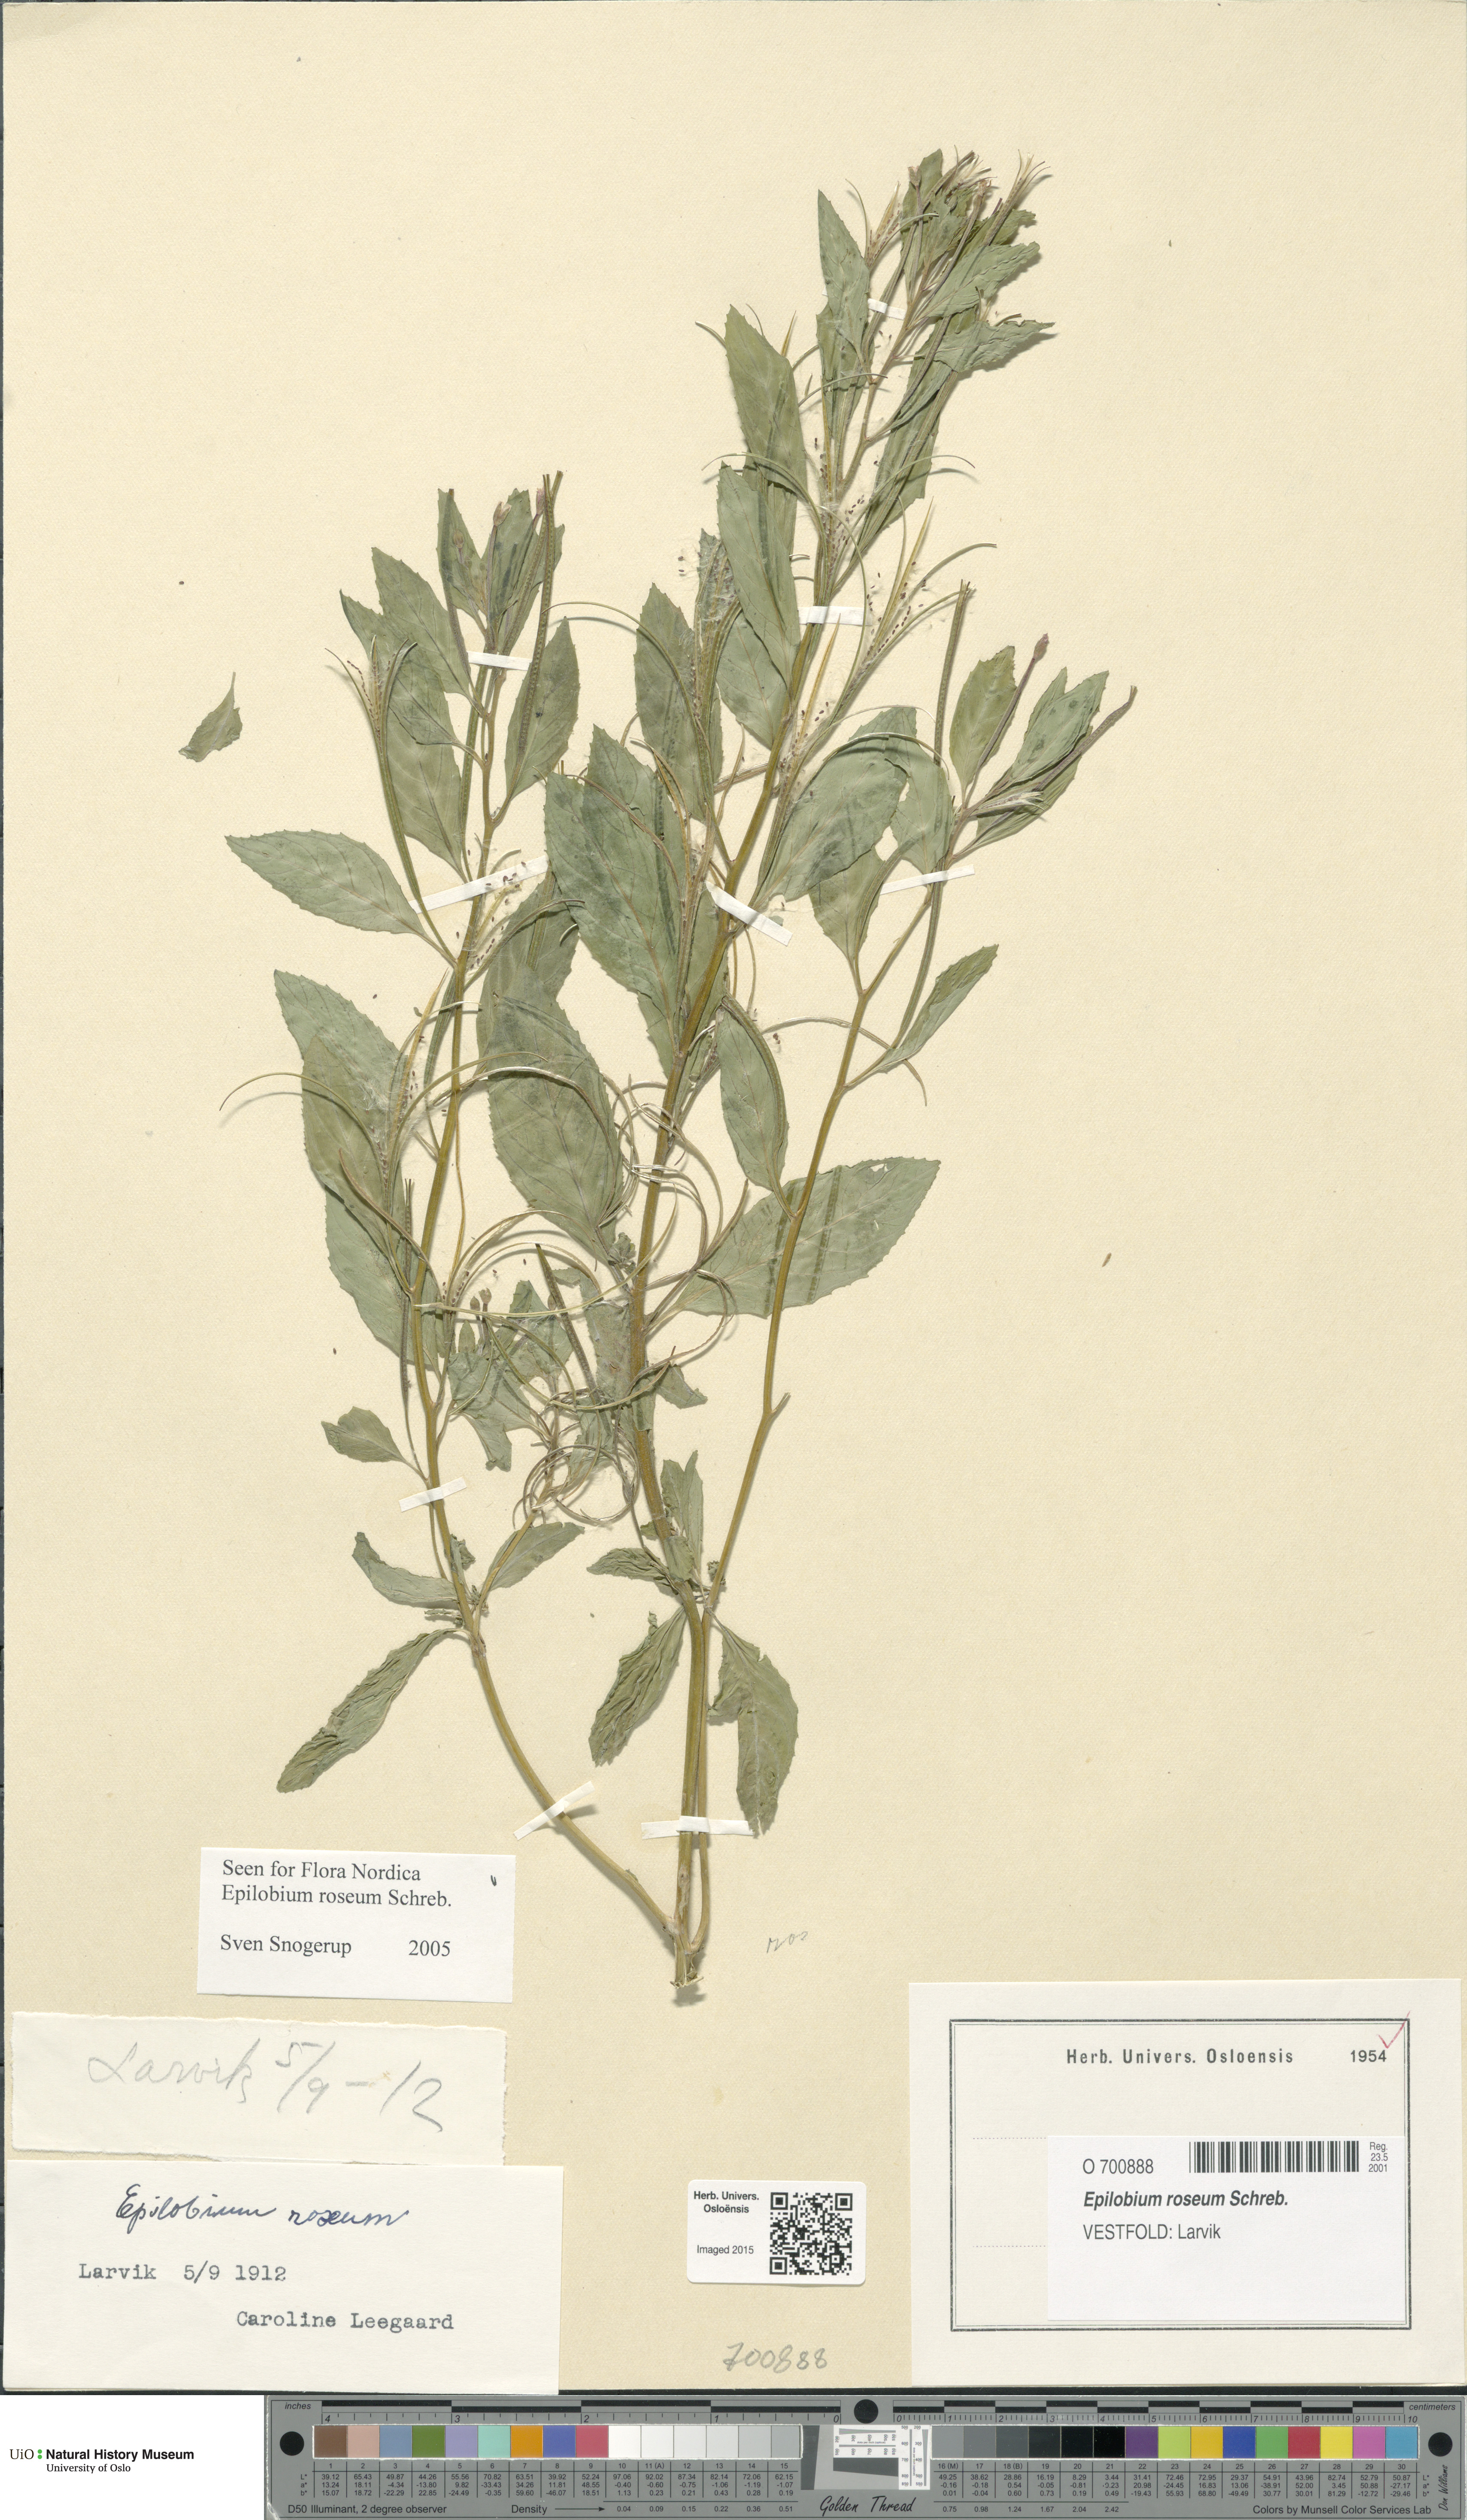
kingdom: Plantae
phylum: Tracheophyta
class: Magnoliopsida
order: Myrtales
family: Onagraceae
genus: Epilobium
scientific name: Epilobium roseum
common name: Pale willowherb
